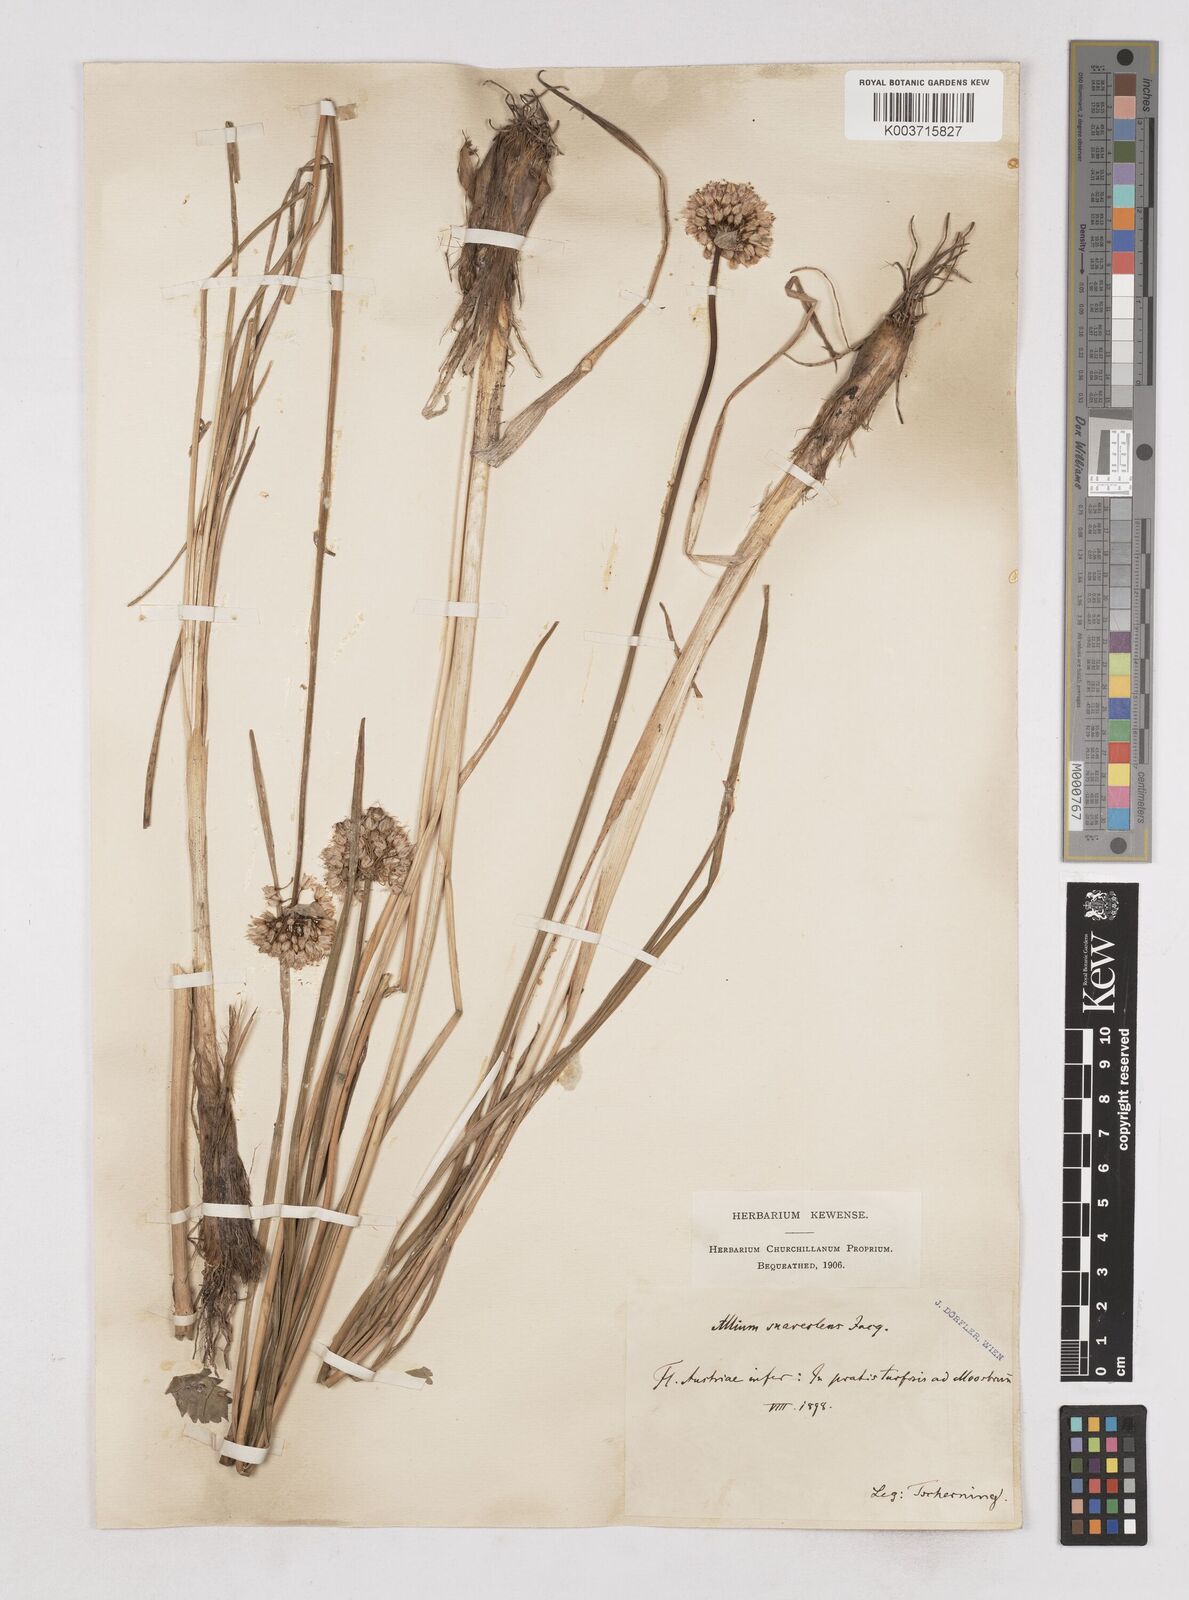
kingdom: Plantae
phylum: Tracheophyta
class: Liliopsida
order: Asparagales
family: Amaryllidaceae
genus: Allium
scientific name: Allium suaveolens
